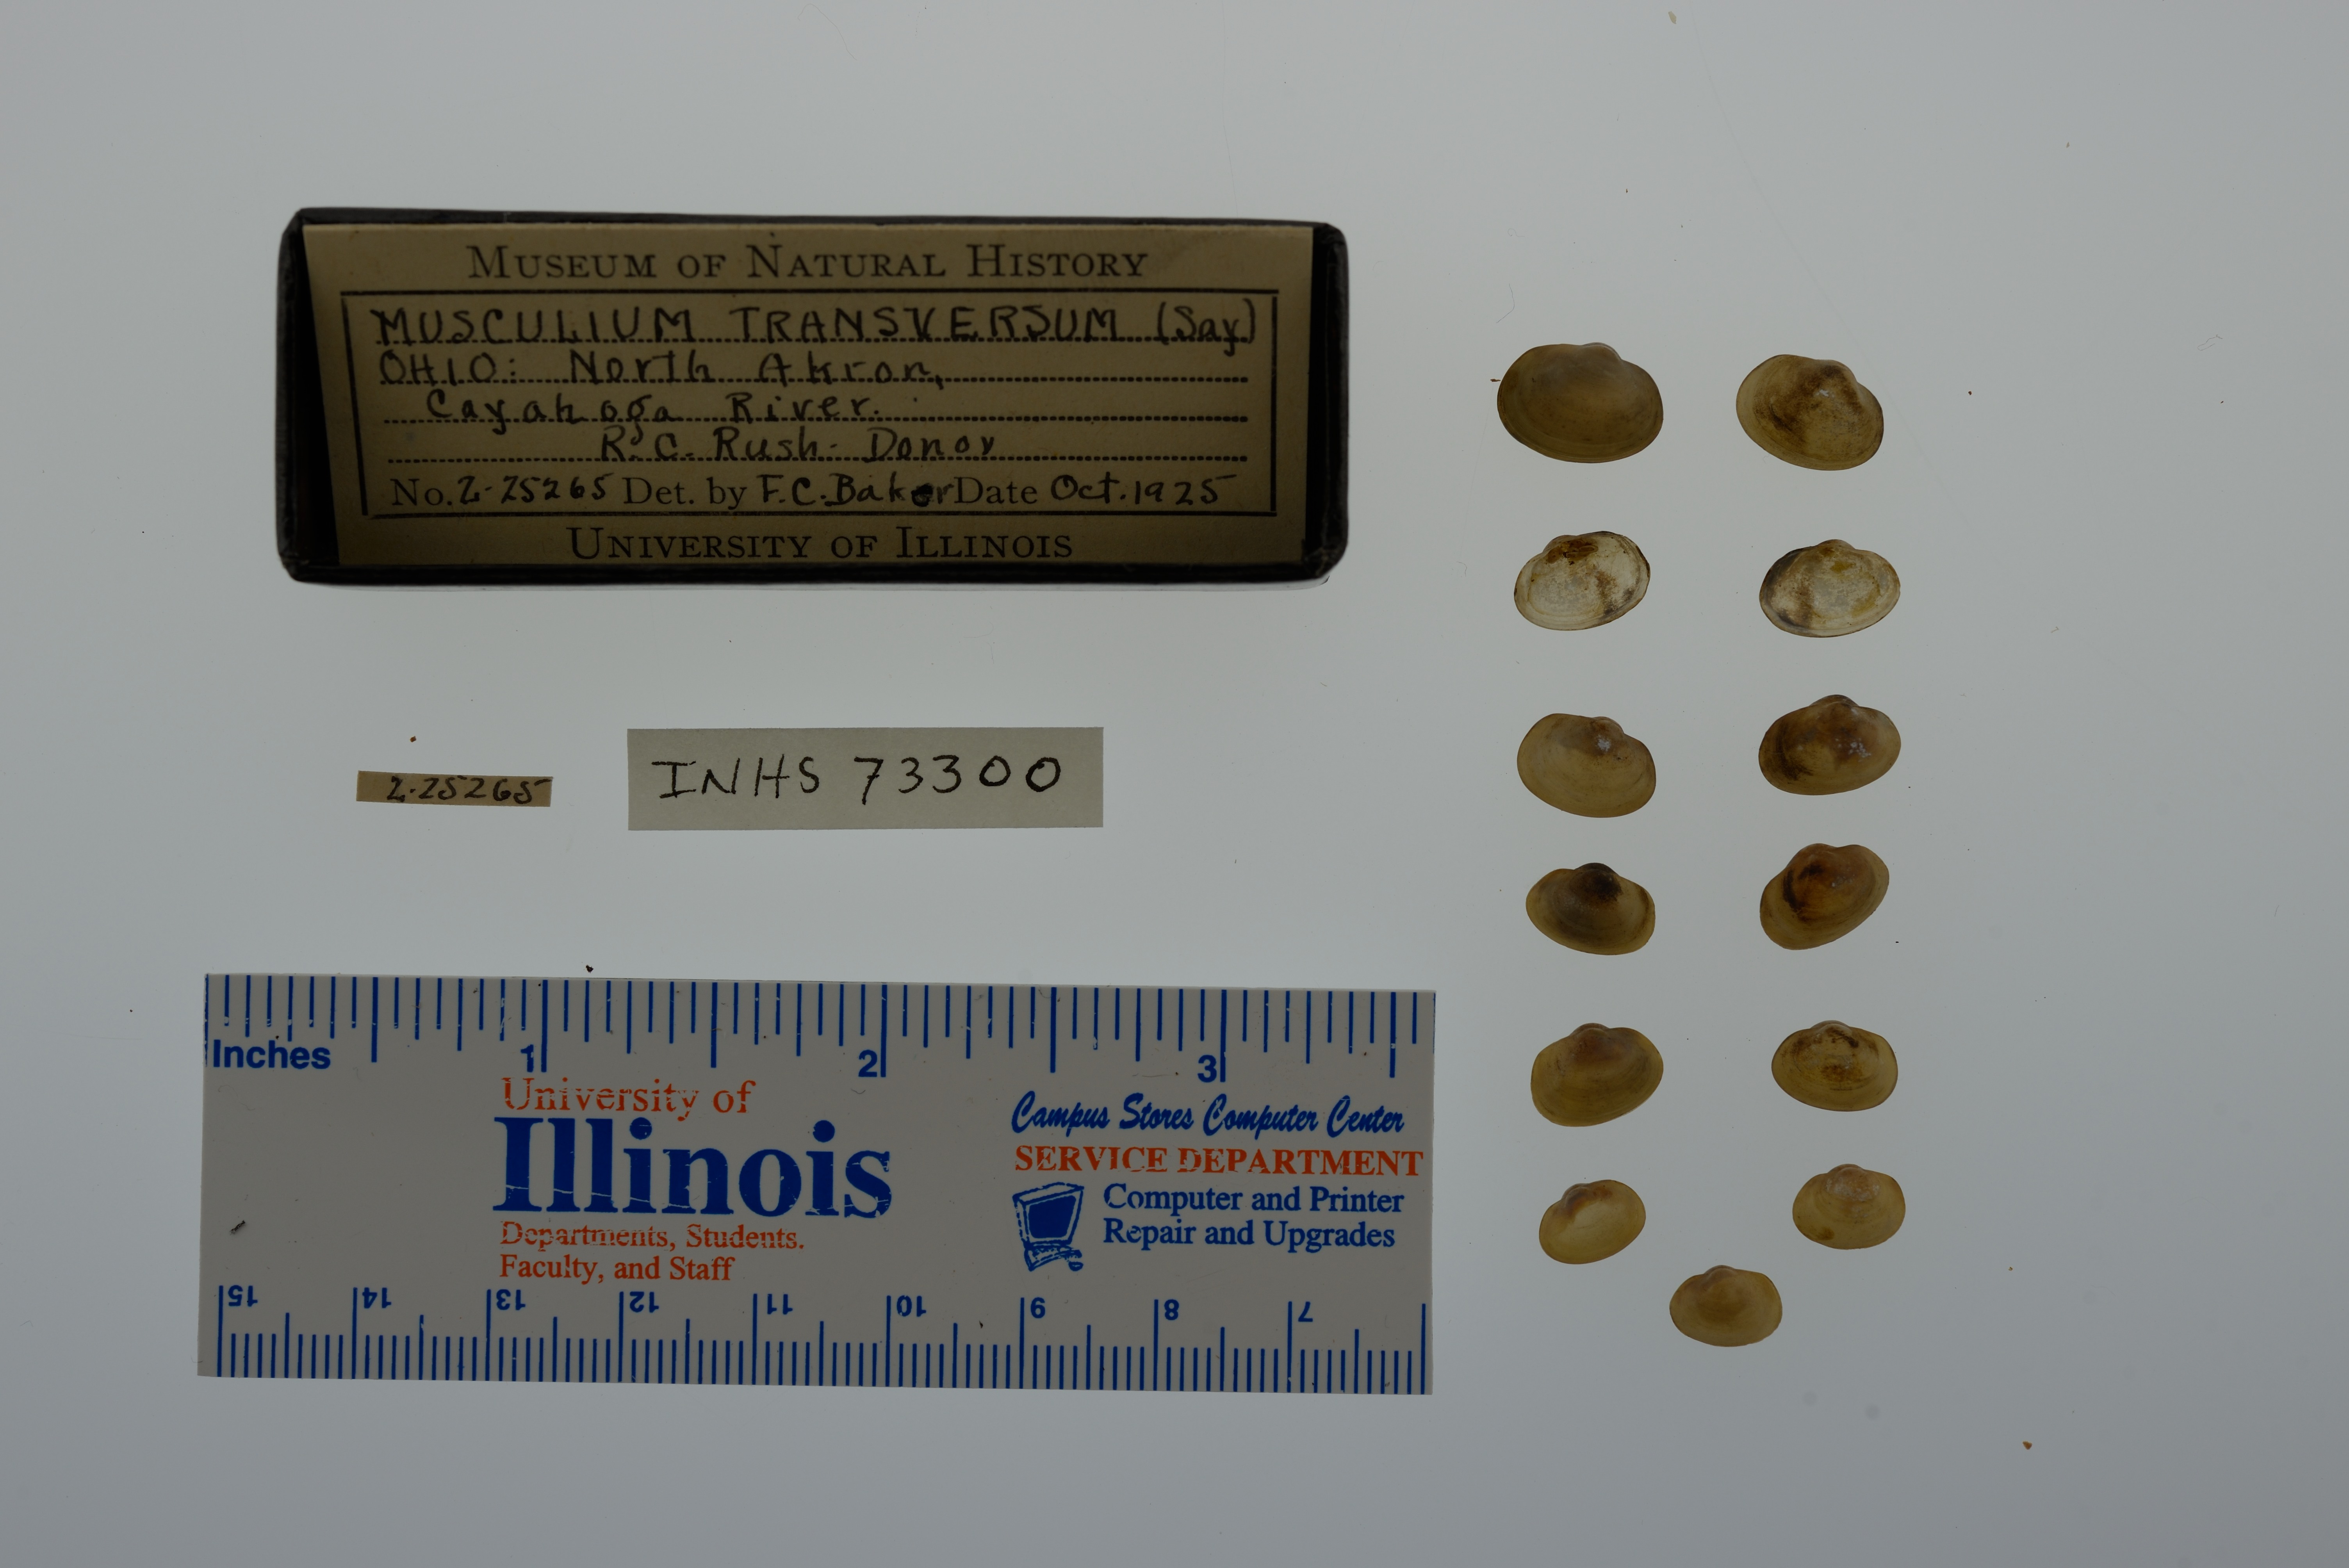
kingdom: Animalia
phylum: Mollusca
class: Bivalvia
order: Sphaeriida
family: Sphaeriidae
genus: Musculium
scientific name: Musculium transversum
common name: Oblong orb mussel
